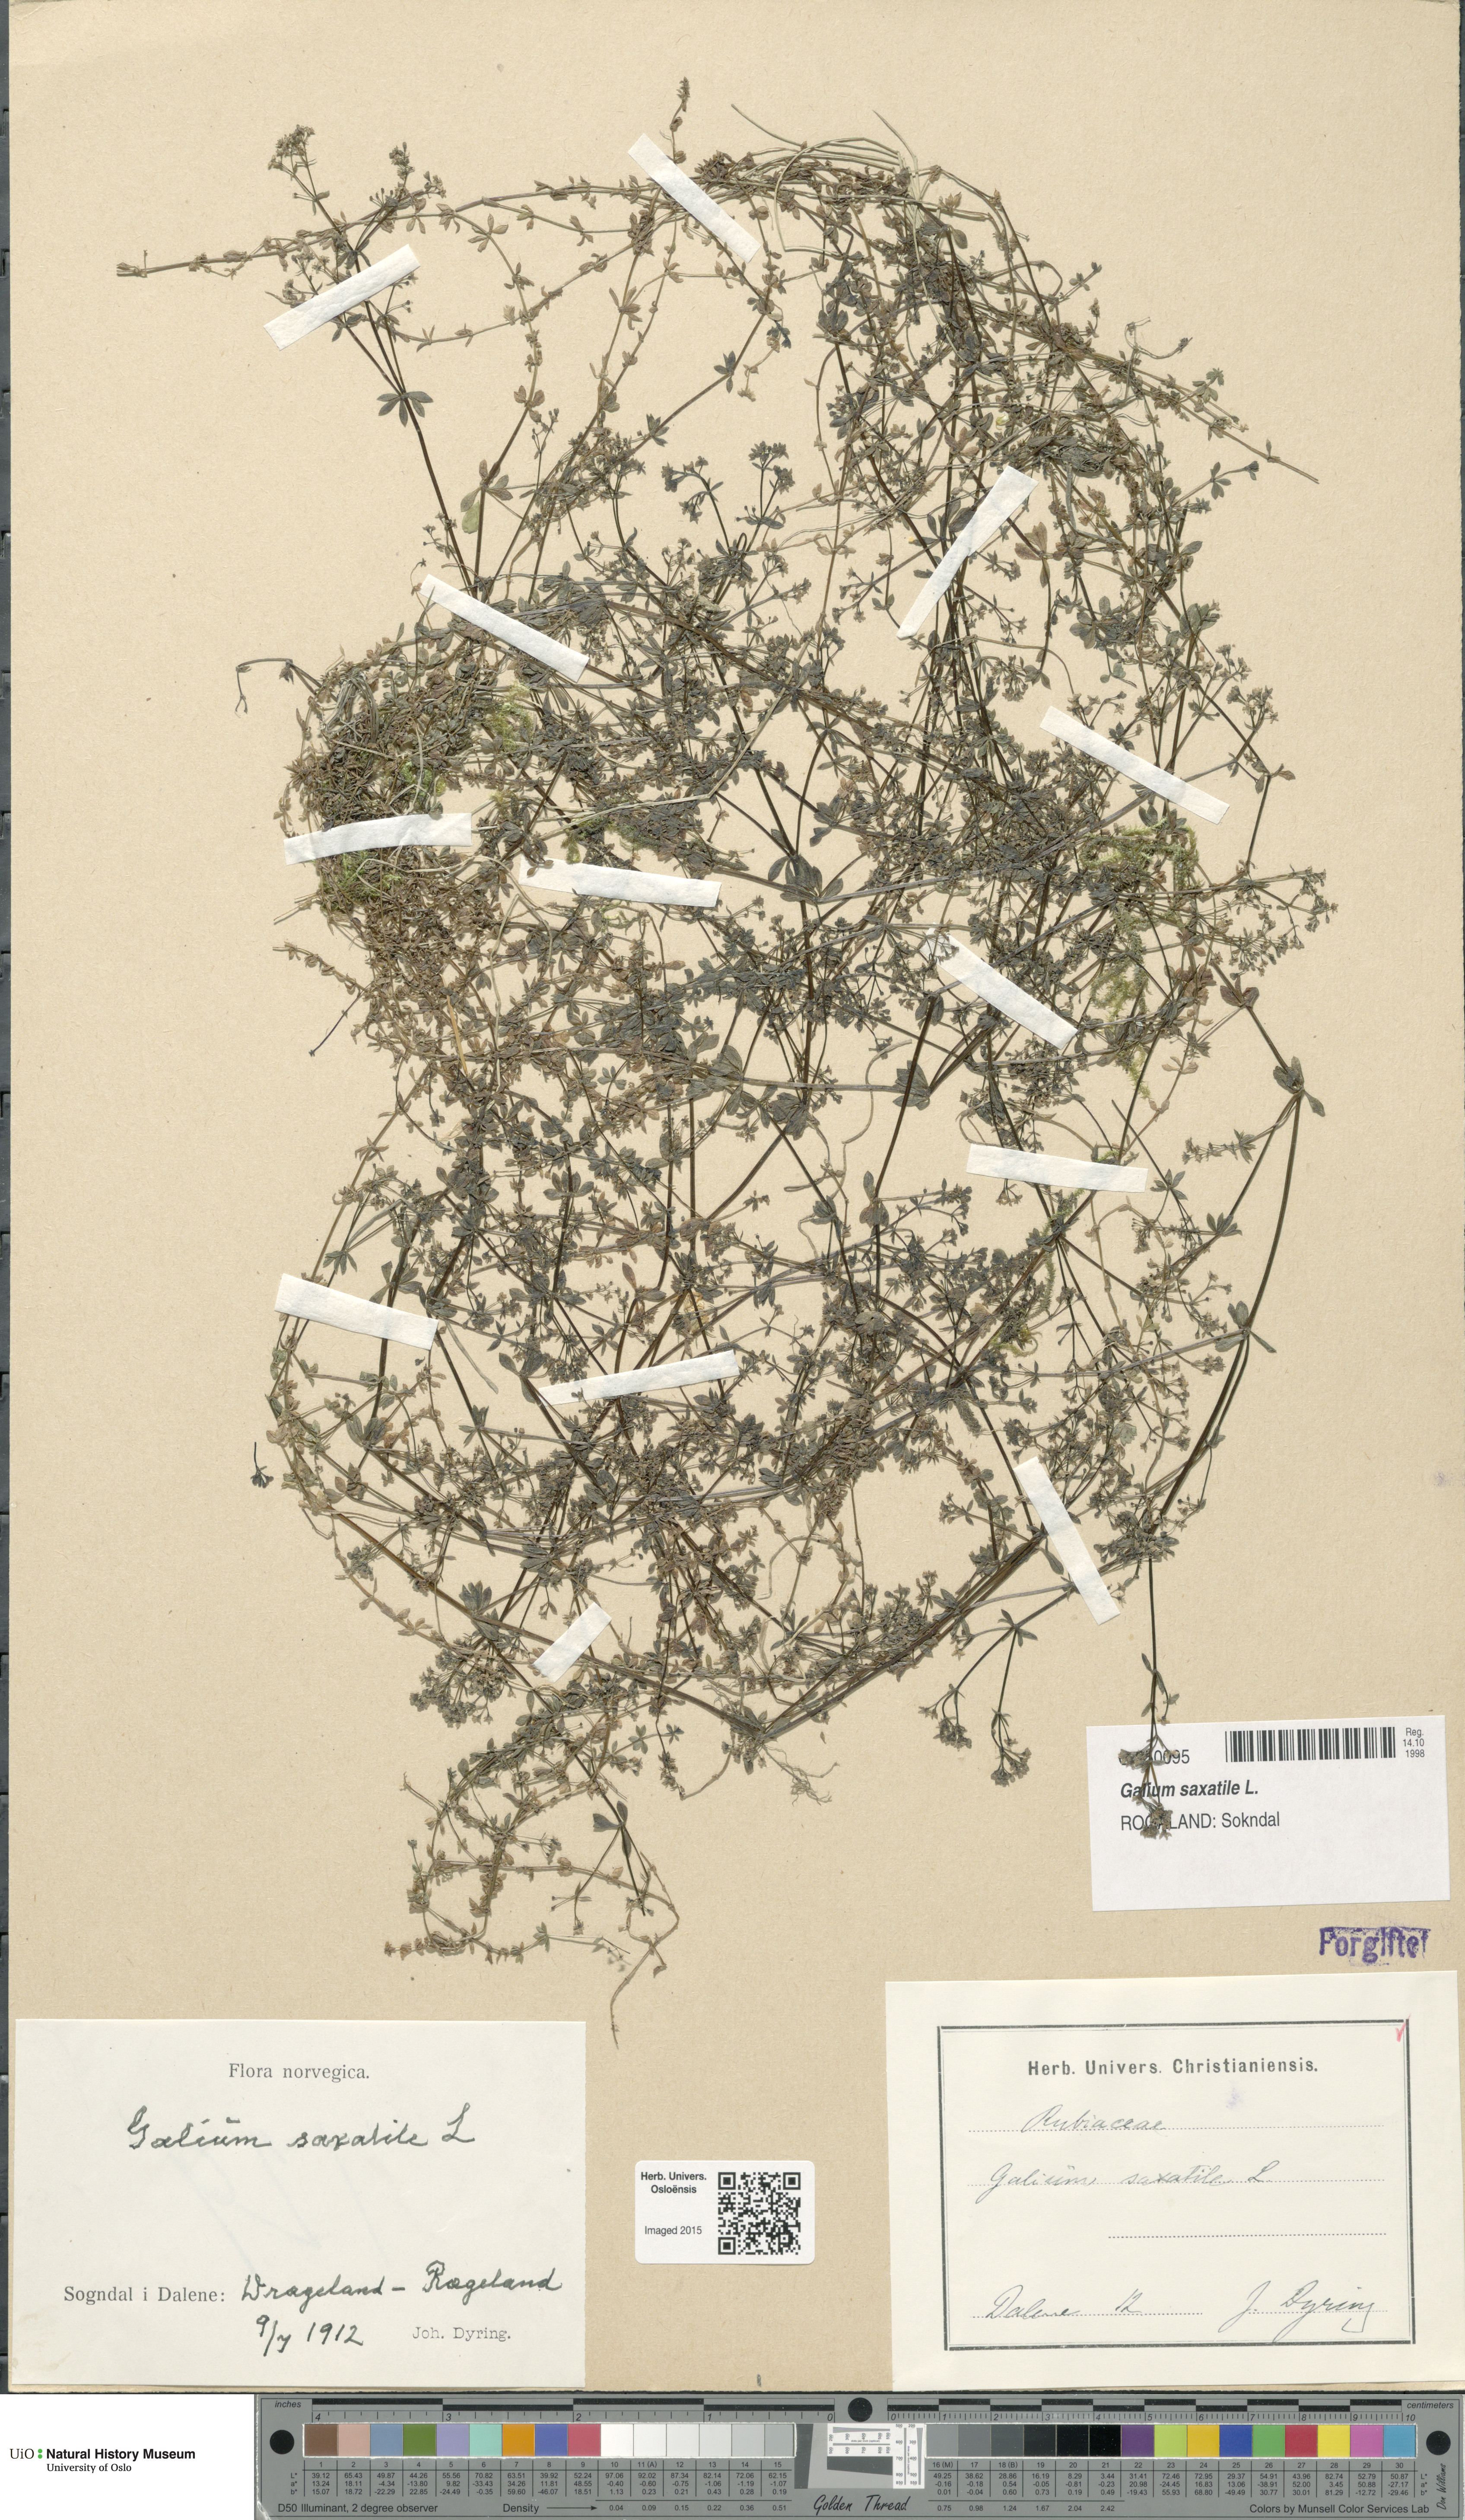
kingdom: Plantae
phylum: Tracheophyta
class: Magnoliopsida
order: Gentianales
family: Rubiaceae
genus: Galium
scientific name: Galium saxatile
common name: Heath bedstraw
